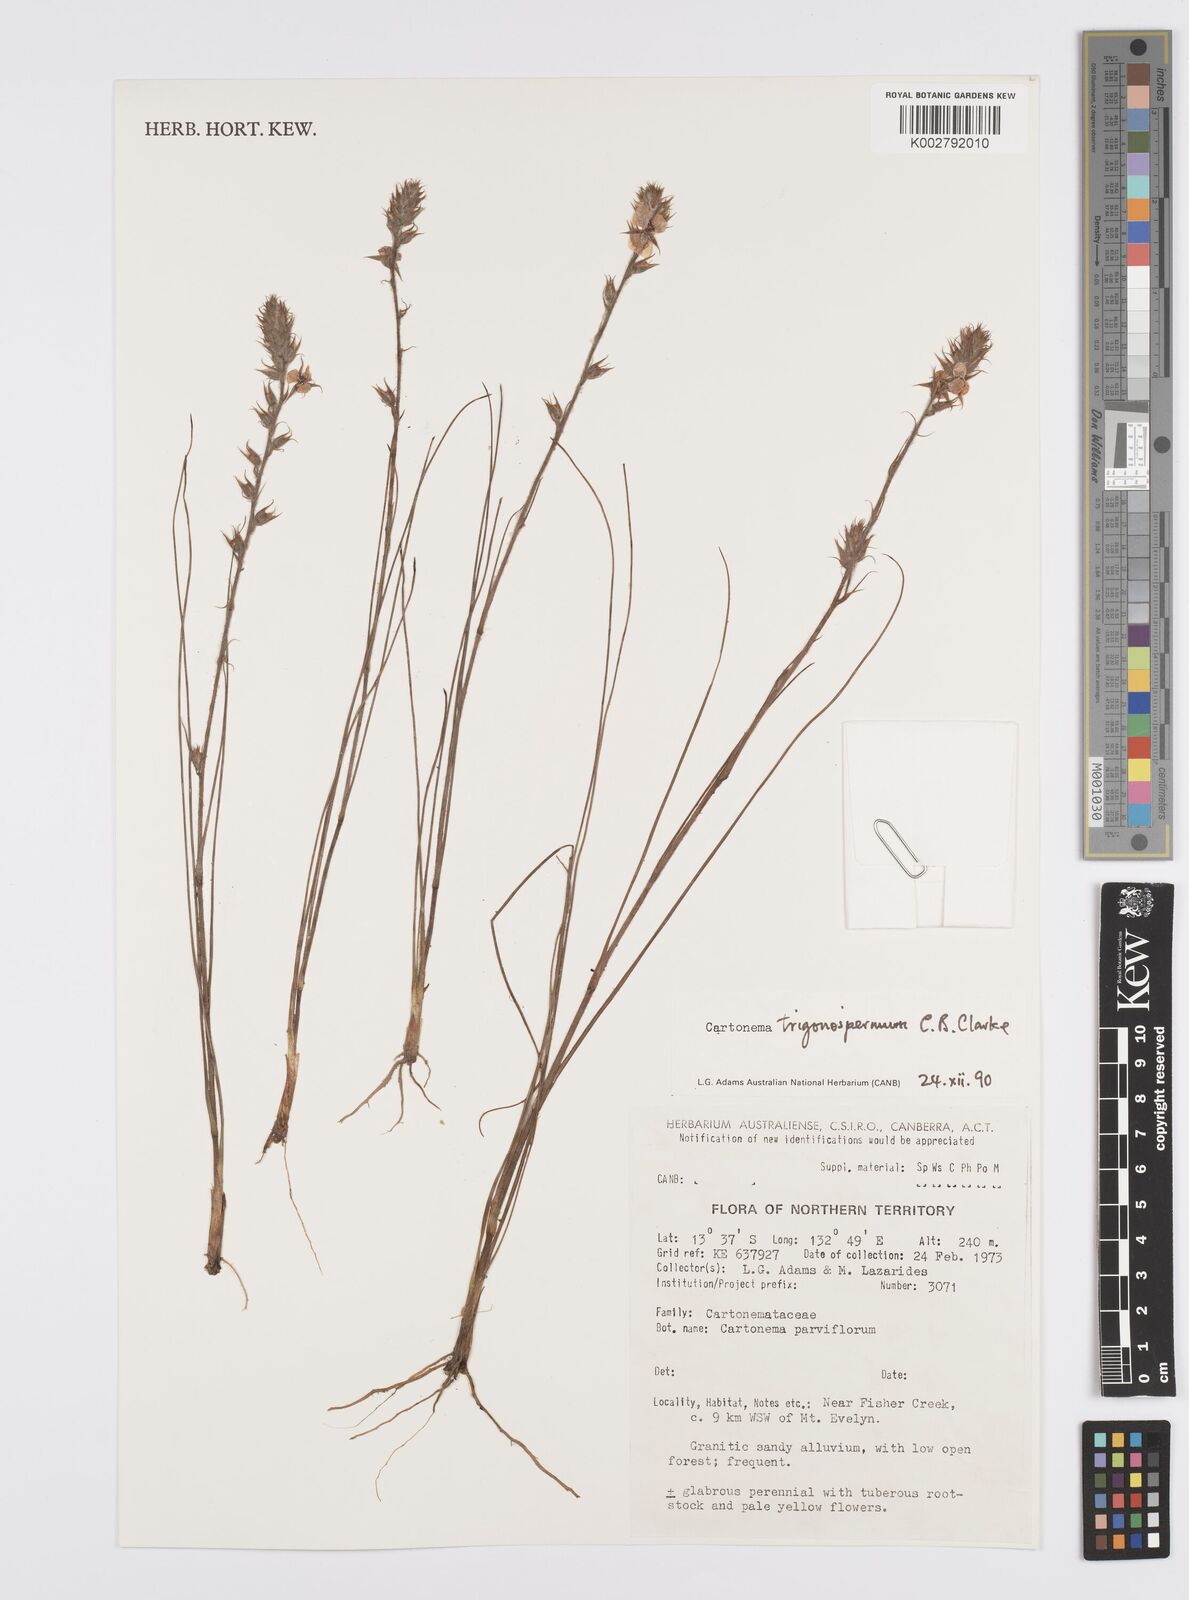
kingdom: Plantae
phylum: Tracheophyta
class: Liliopsida
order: Commelinales
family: Commelinaceae
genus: Cartonema
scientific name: Cartonema trigonospermum
